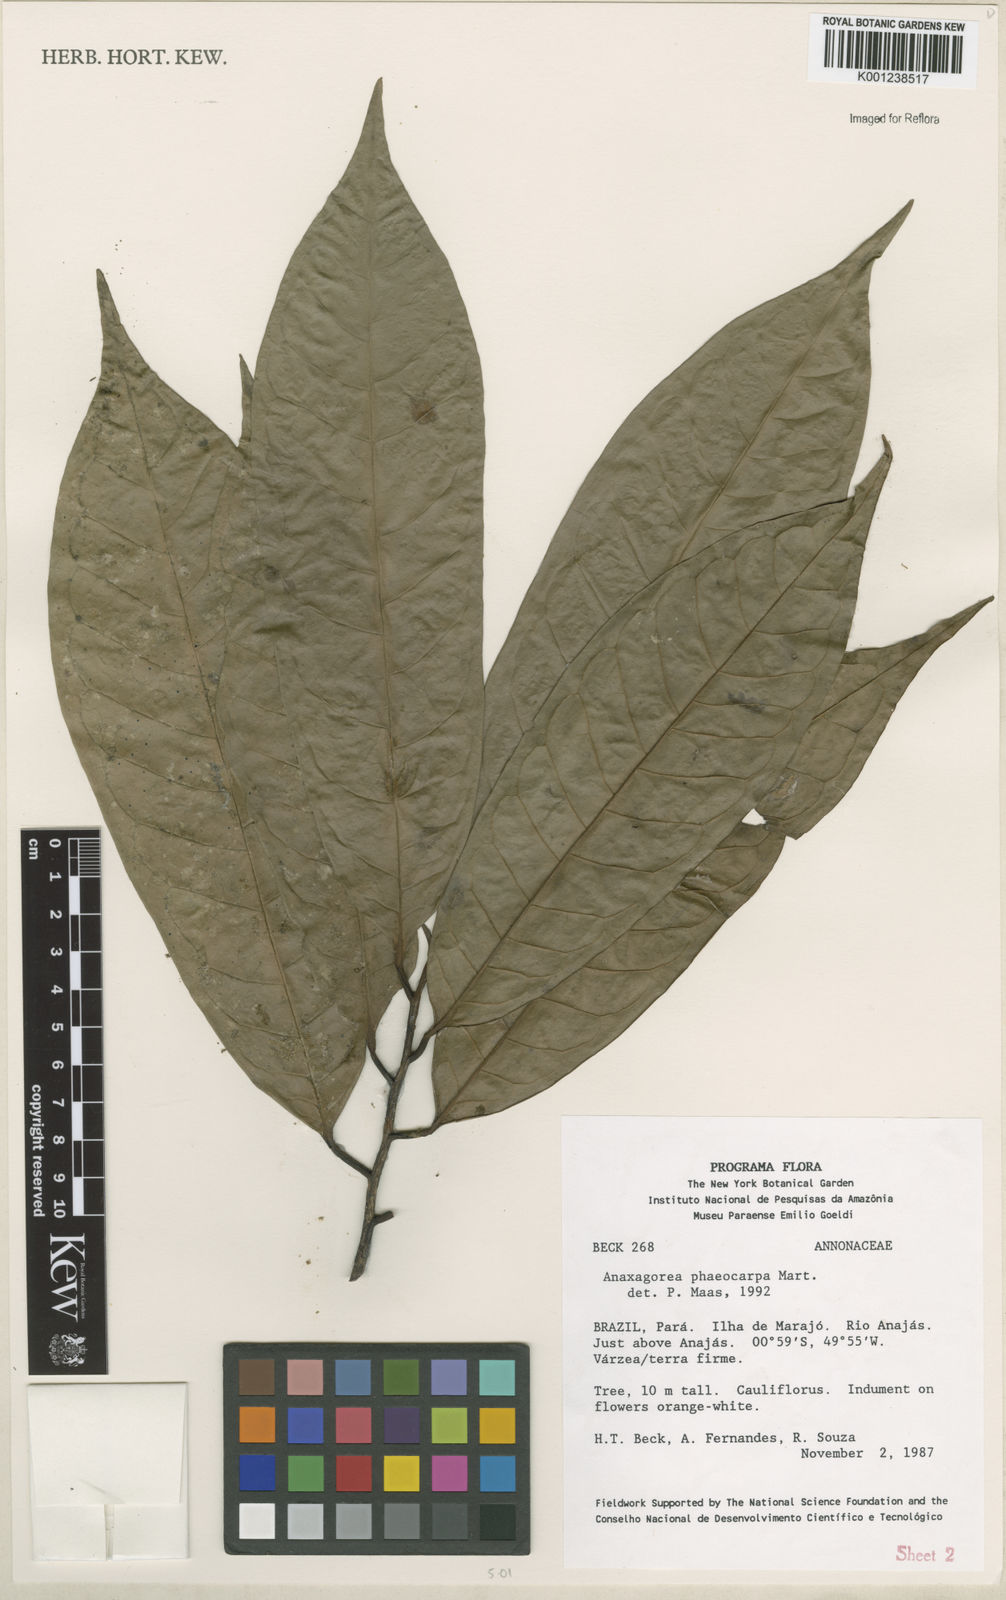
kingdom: Plantae
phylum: Tracheophyta
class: Magnoliopsida
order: Magnoliales
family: Annonaceae
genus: Anaxagorea
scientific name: Anaxagorea phaeocarpa
